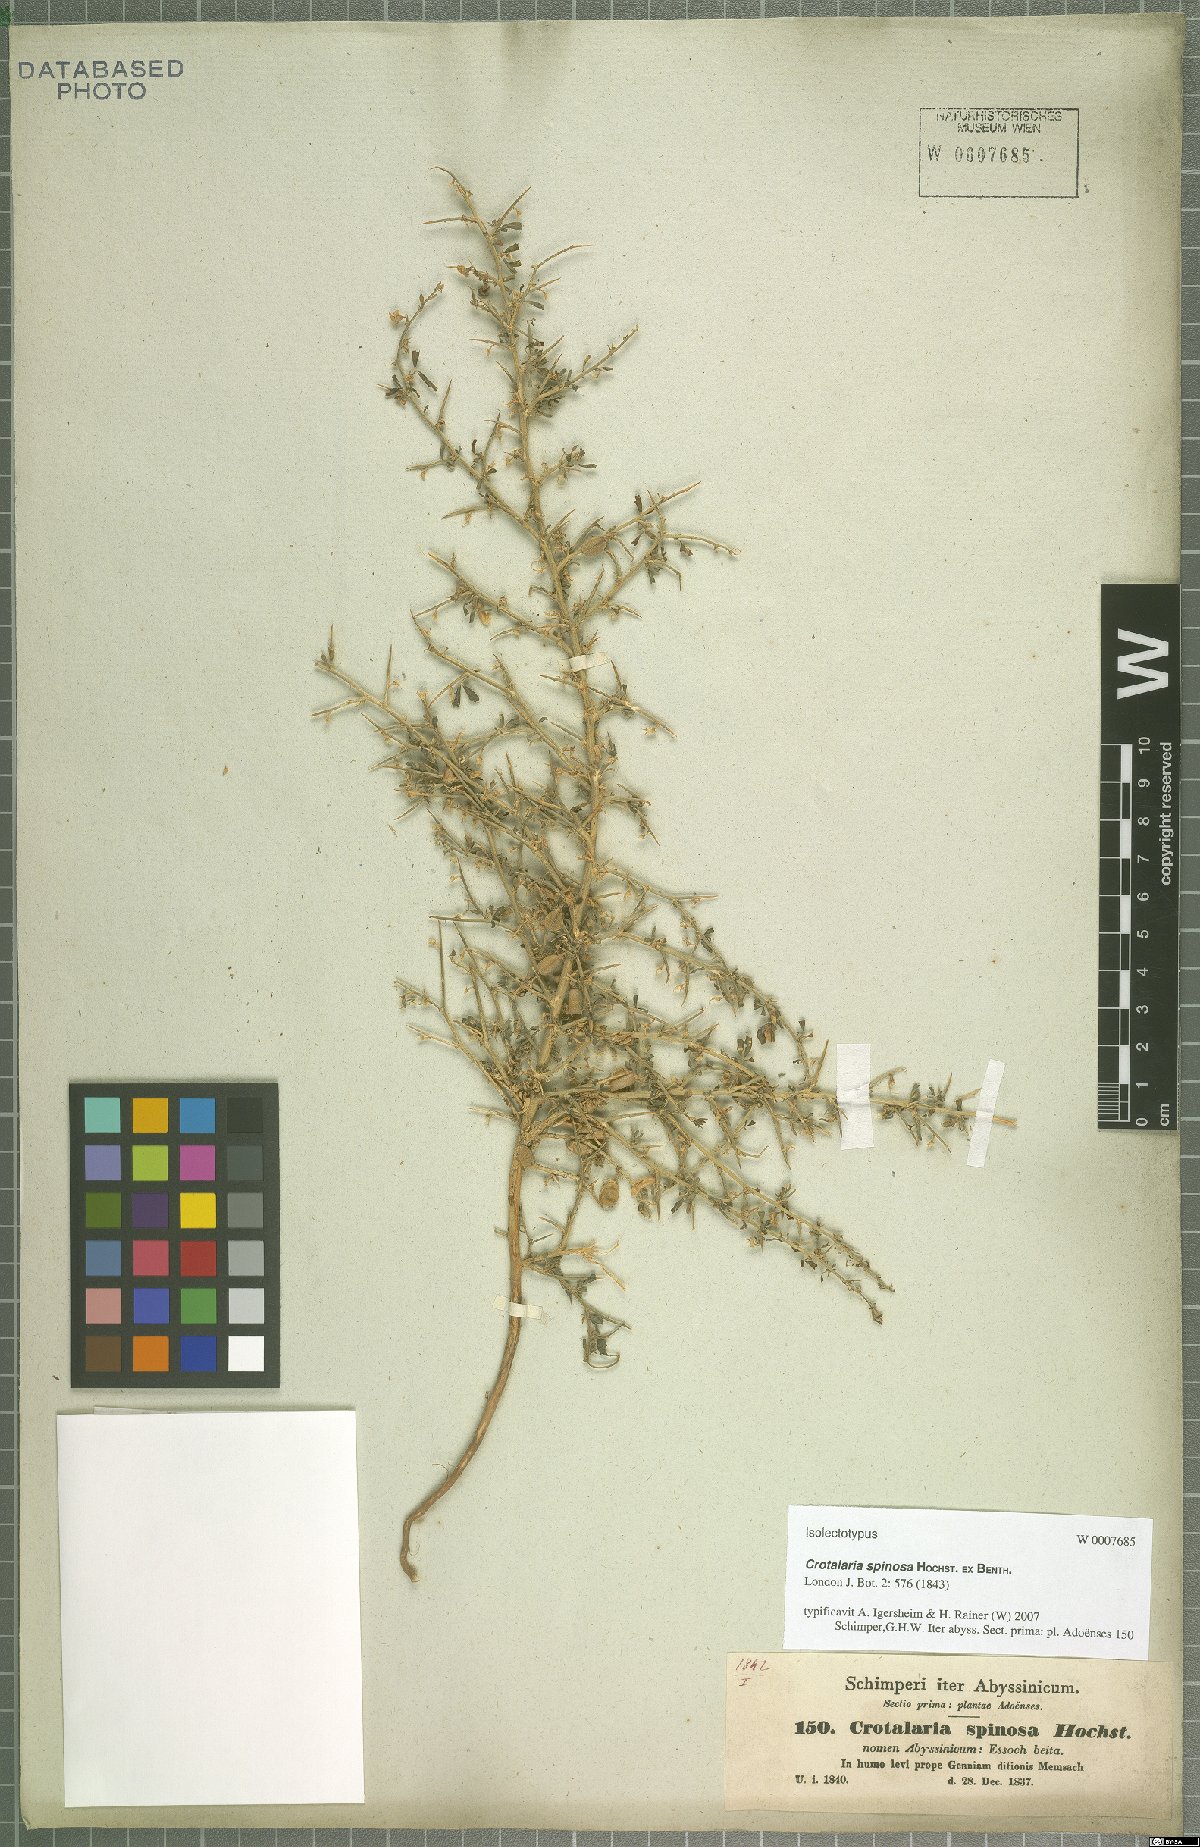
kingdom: Plantae
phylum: Tracheophyta
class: Magnoliopsida
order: Fabales
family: Fabaceae
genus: Crotalaria
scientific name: Crotalaria spinosa
